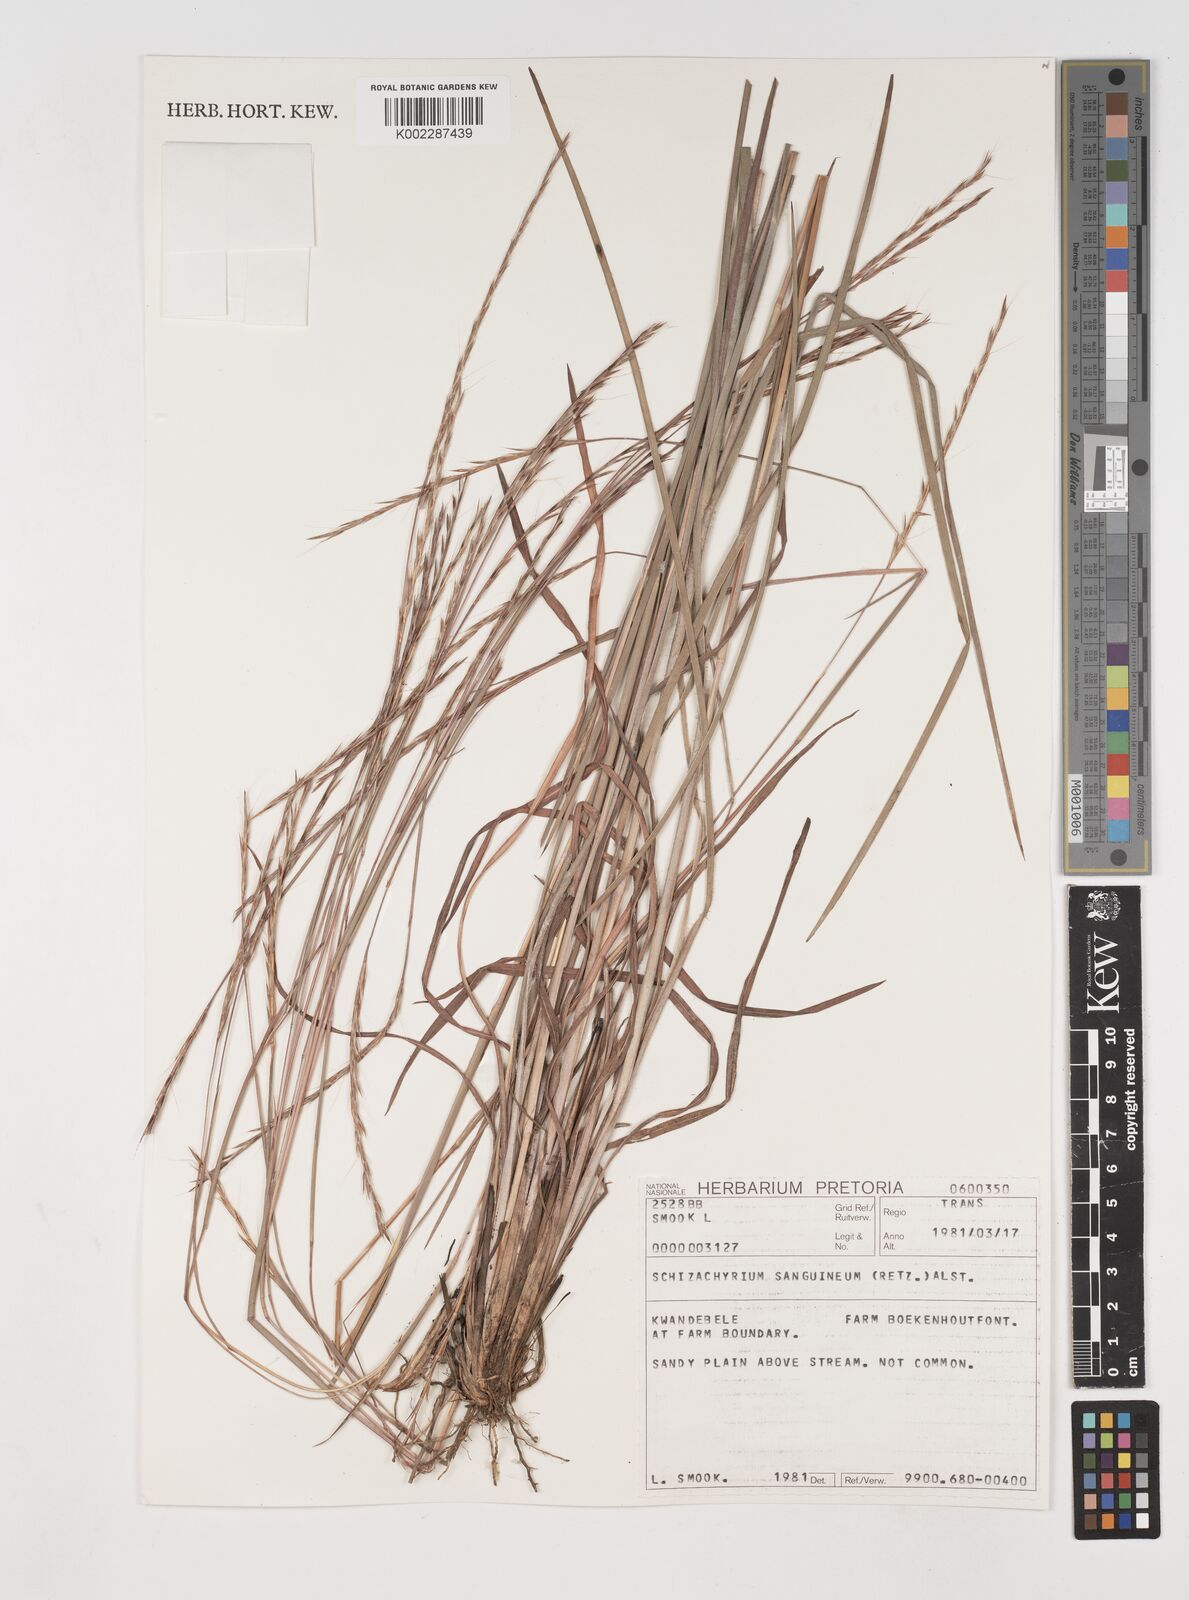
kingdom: Plantae
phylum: Tracheophyta
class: Liliopsida
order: Poales
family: Poaceae
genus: Schizachyrium
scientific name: Schizachyrium sanguineum
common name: Crimson bluestem
